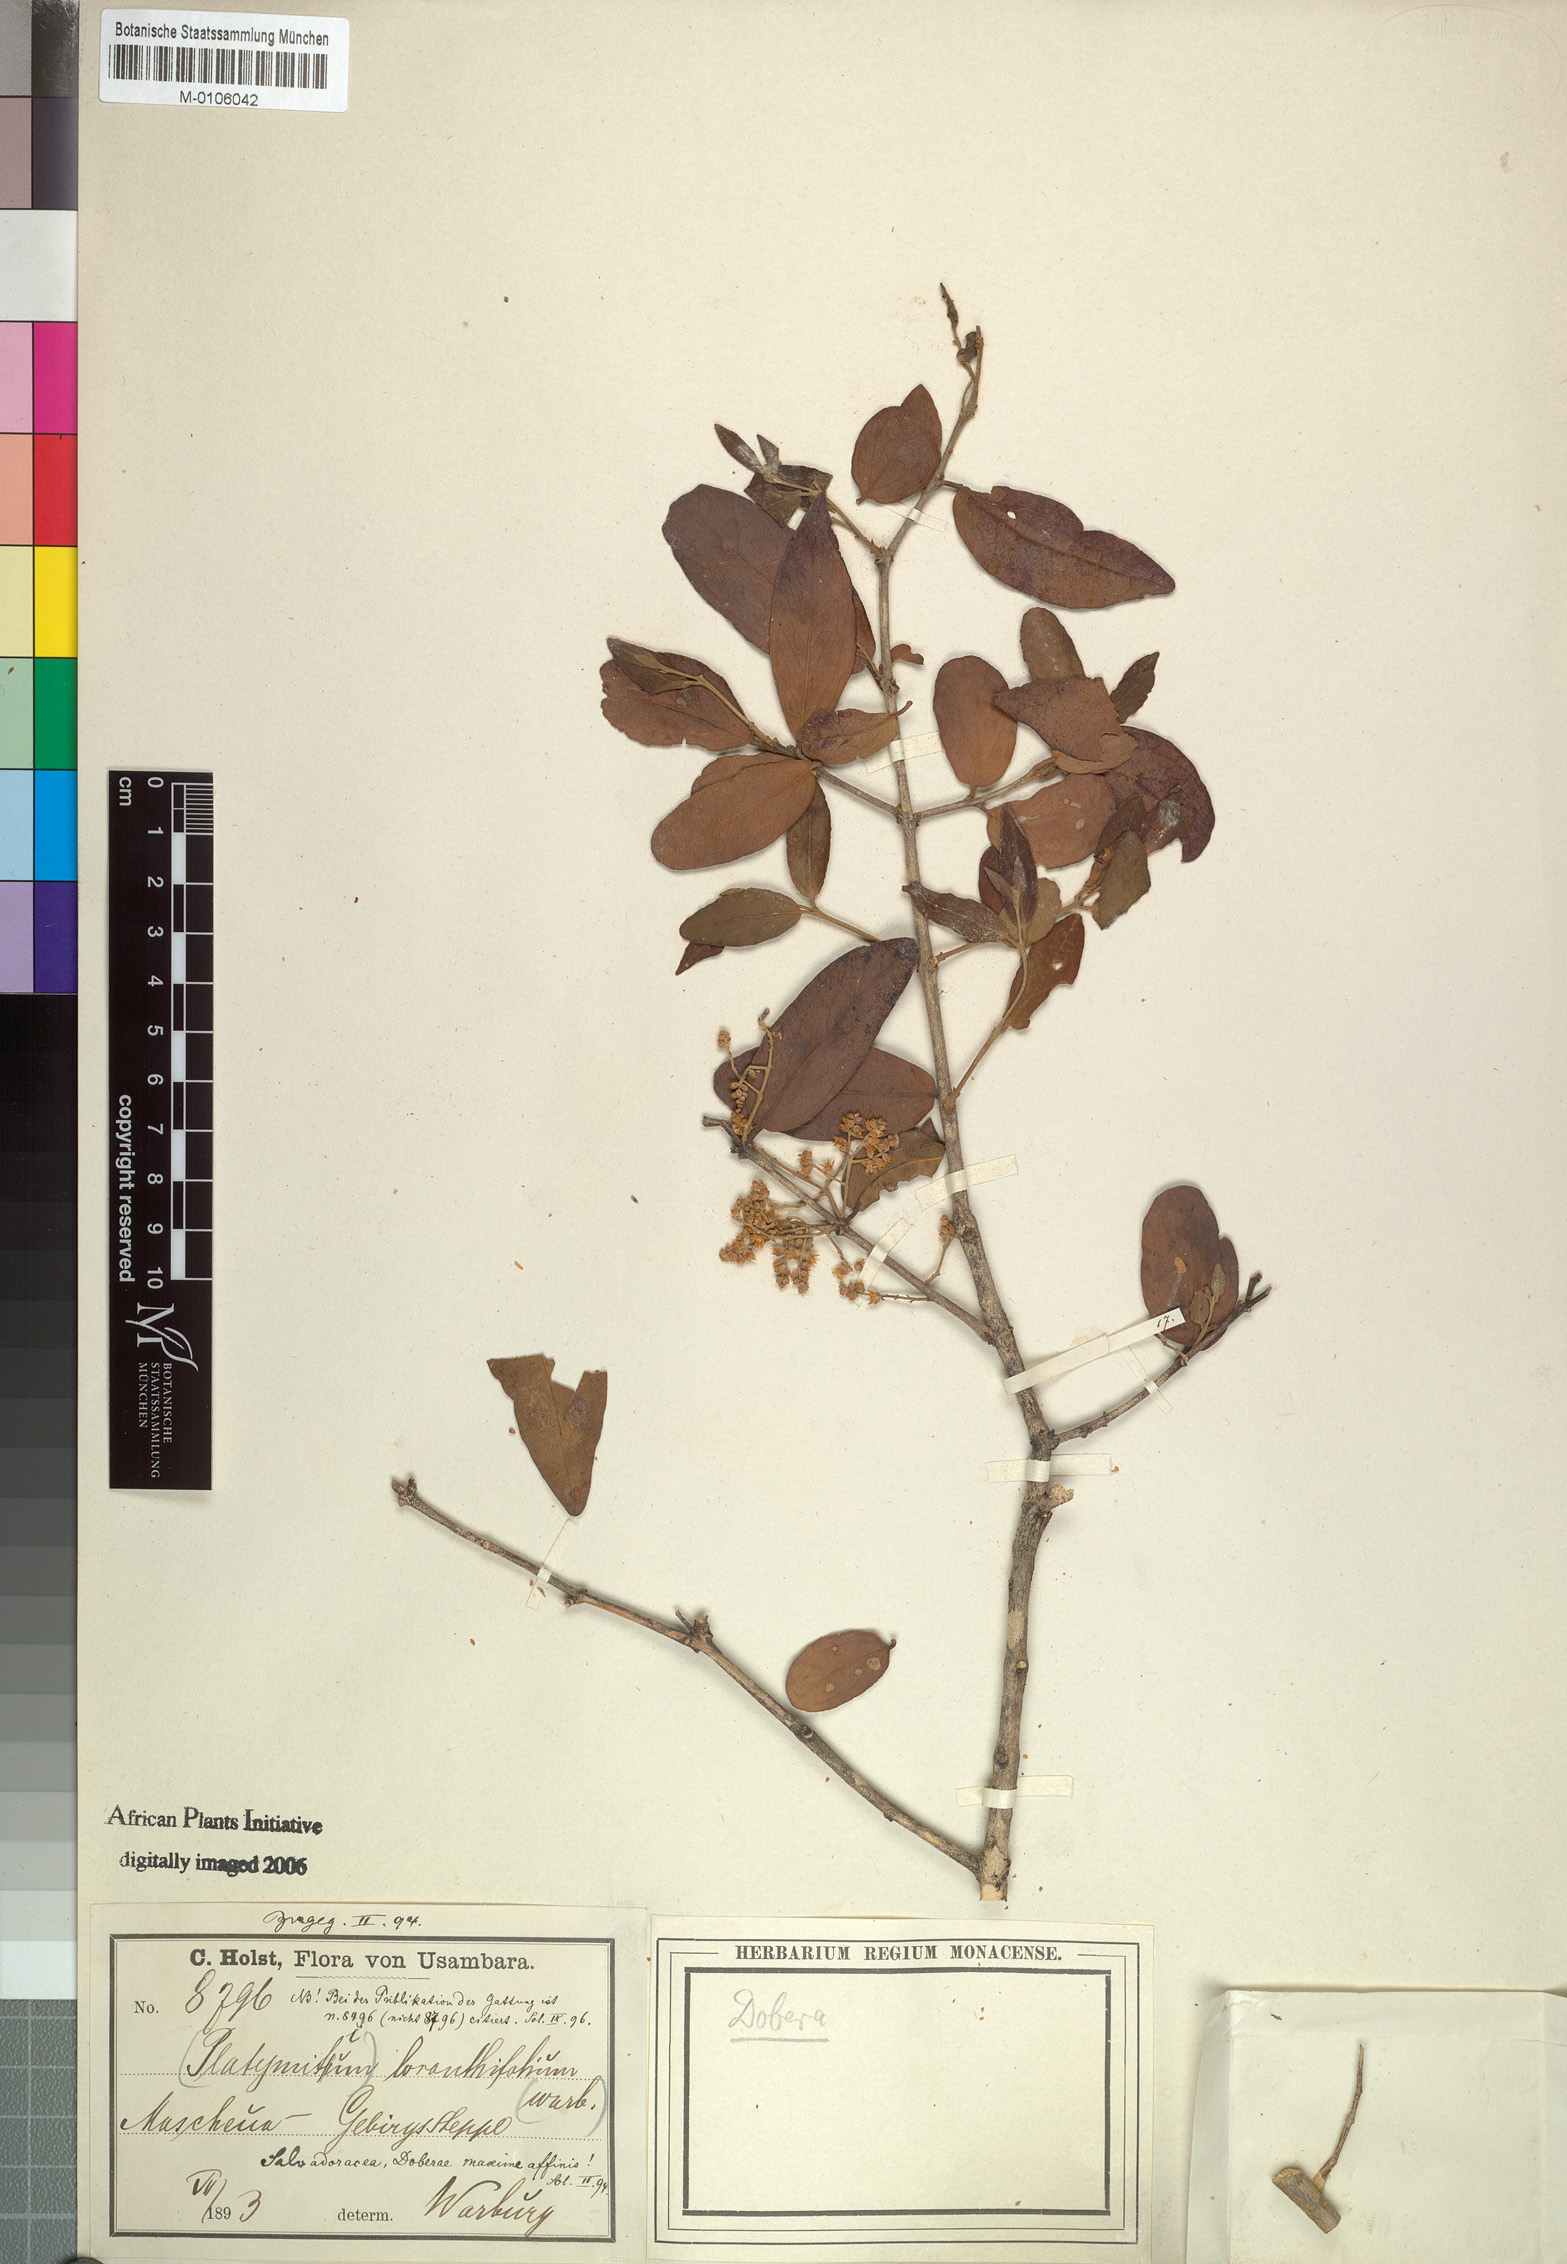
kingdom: Plantae
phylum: Tracheophyta
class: Magnoliopsida
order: Brassicales
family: Salvadoraceae
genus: Dobera
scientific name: Dobera loranthifolia
